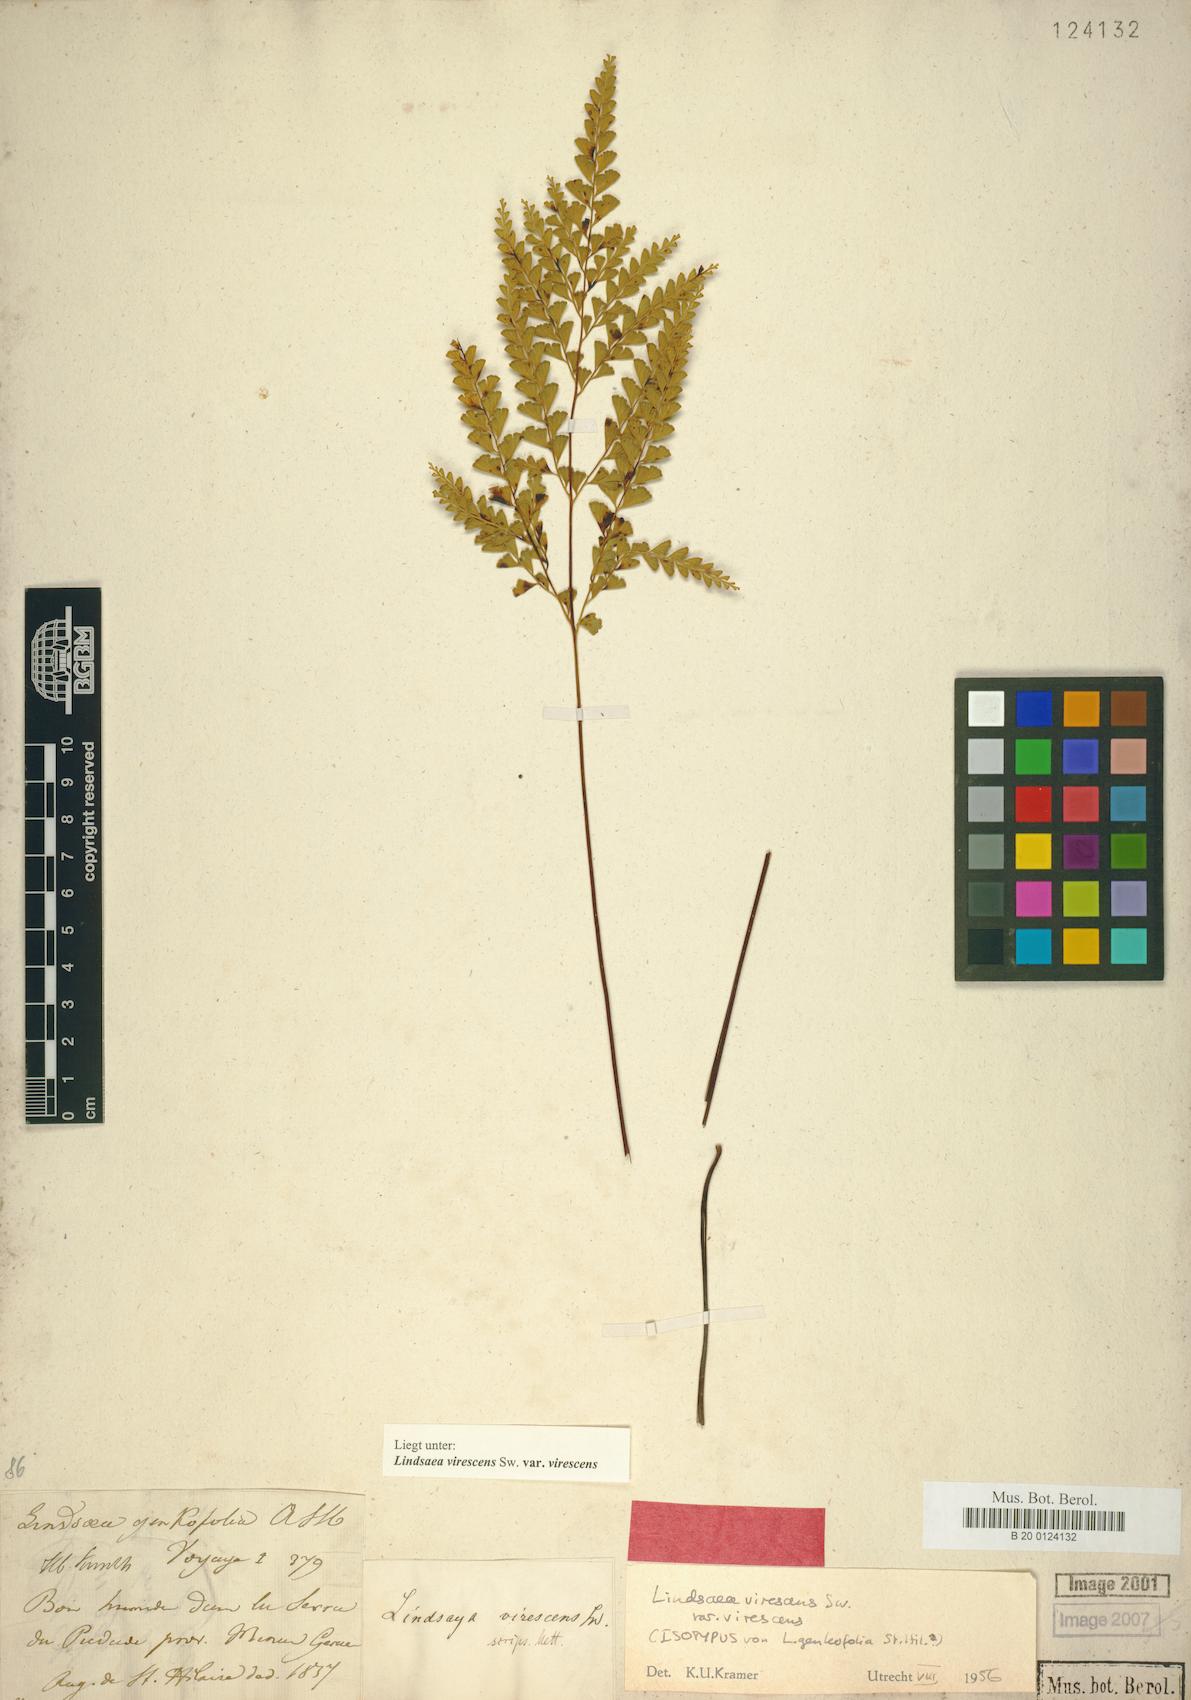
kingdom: Plantae
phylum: Tracheophyta
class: Polypodiopsida
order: Polypodiales
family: Lindsaeaceae
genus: Lindsaea
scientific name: Lindsaea virescens
